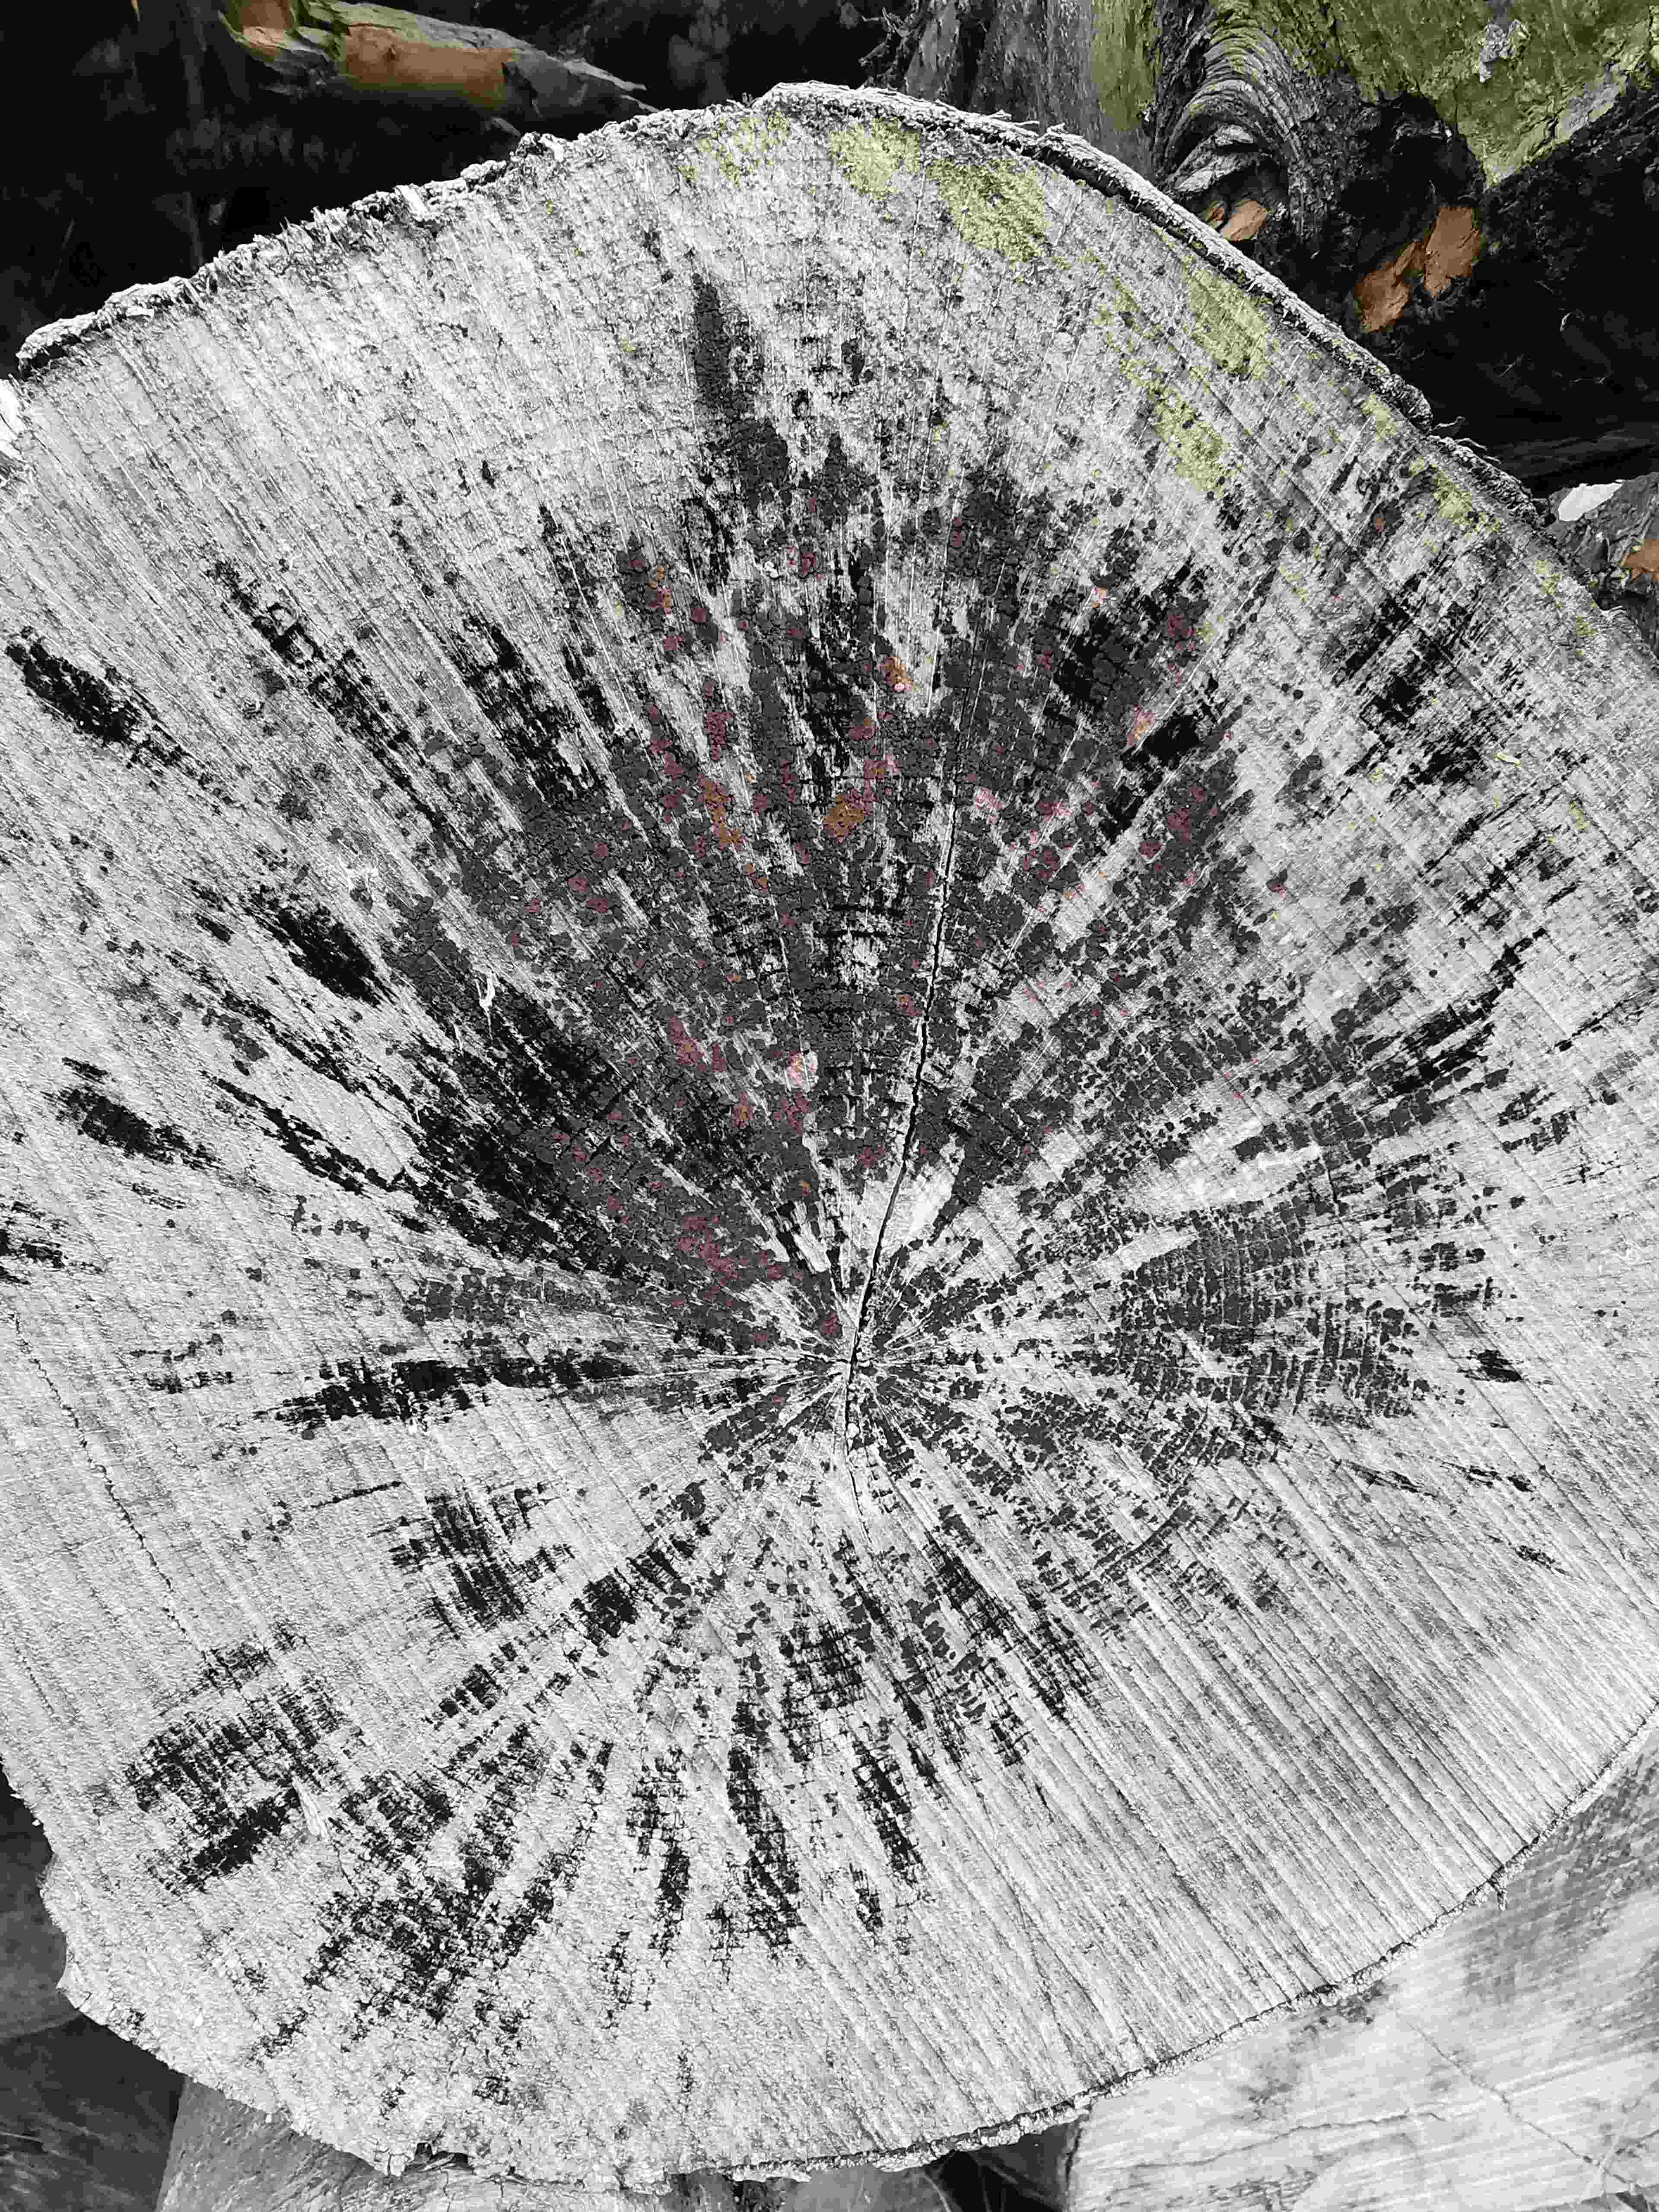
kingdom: Fungi
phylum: Ascomycota
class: Leotiomycetes
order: Helotiales
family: Helotiaceae
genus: Bispora
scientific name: Bispora pallescens
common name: måtte-snitskive
